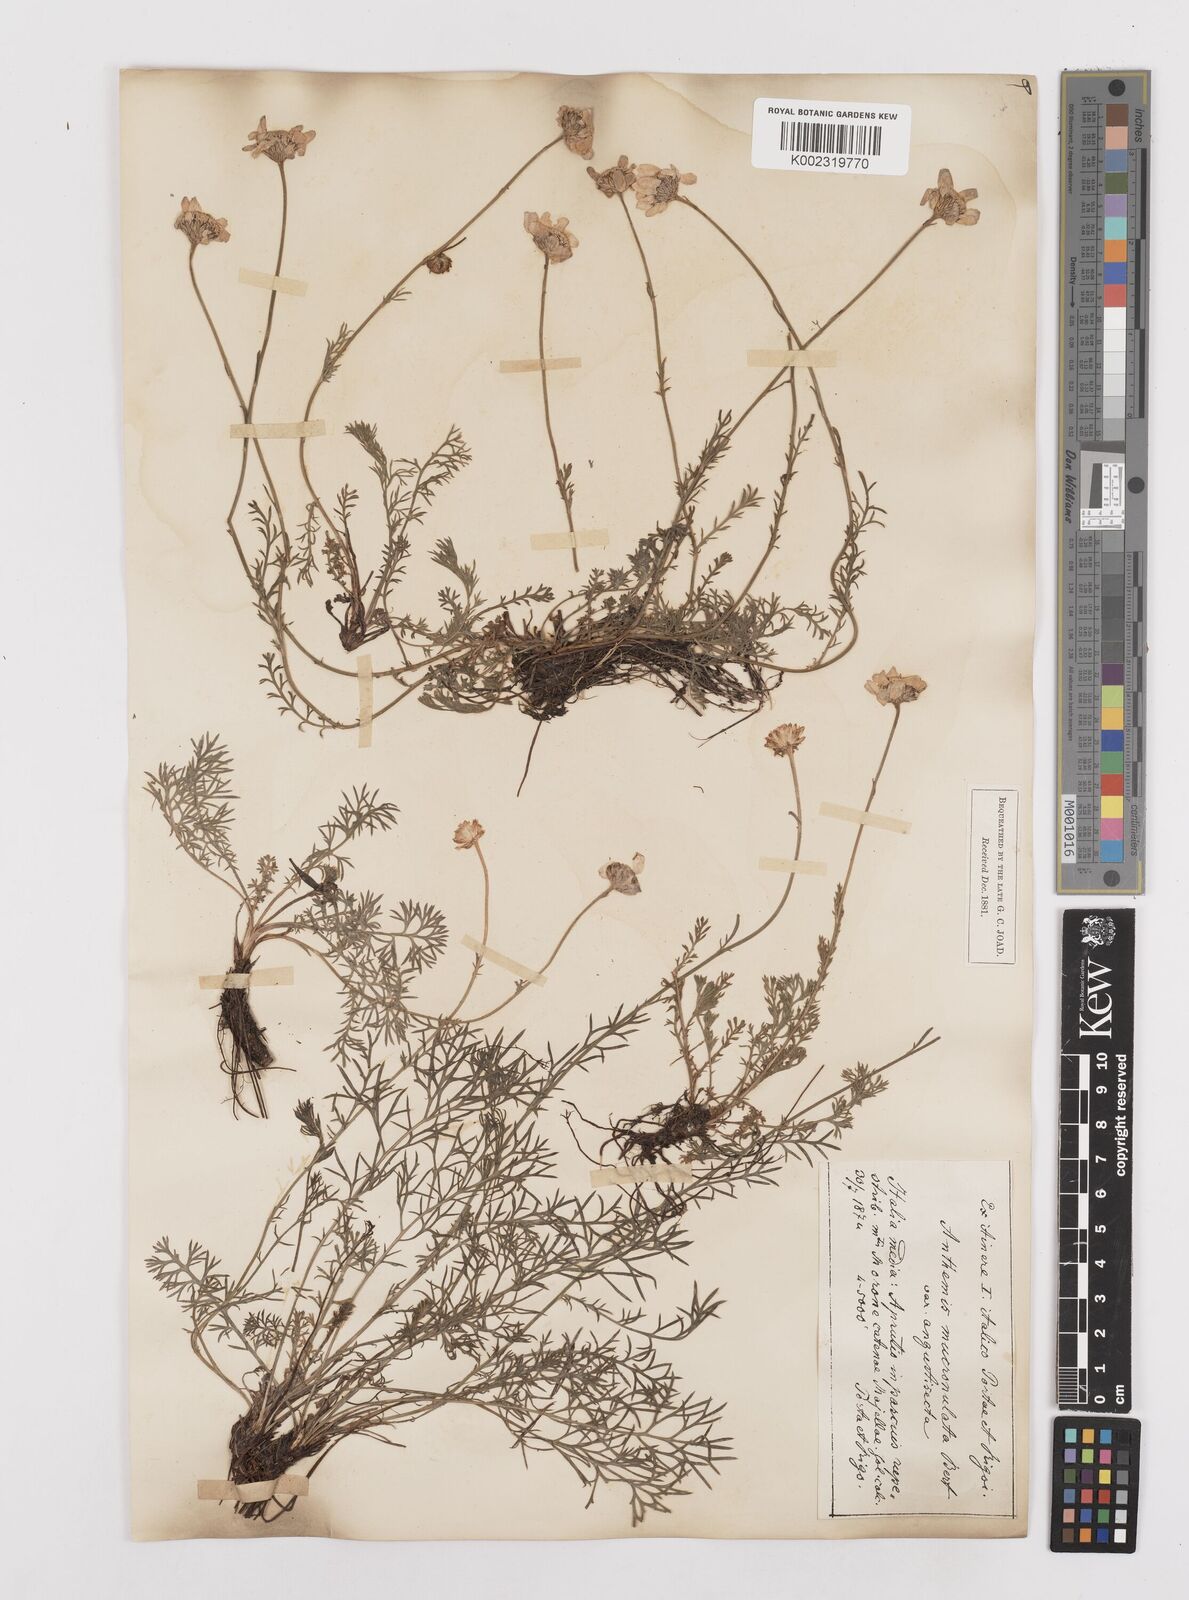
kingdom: Plantae
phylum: Tracheophyta
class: Magnoliopsida
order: Asterales
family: Asteraceae
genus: Achillea
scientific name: Achillea barrelieri
